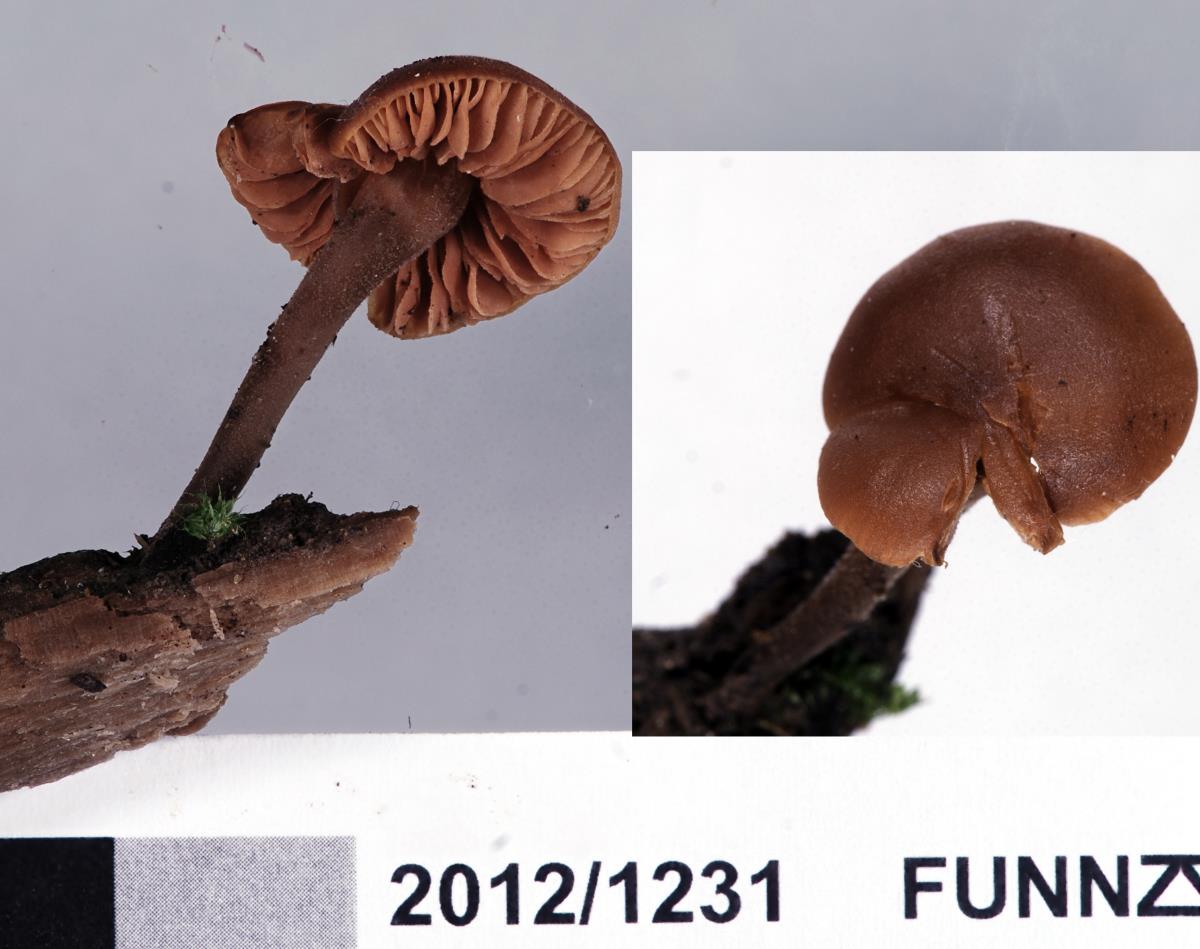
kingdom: Fungi
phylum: Basidiomycota
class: Agaricomycetes
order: Agaricales
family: Macrocystidiaceae
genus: Macrocystidia
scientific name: Macrocystidia
